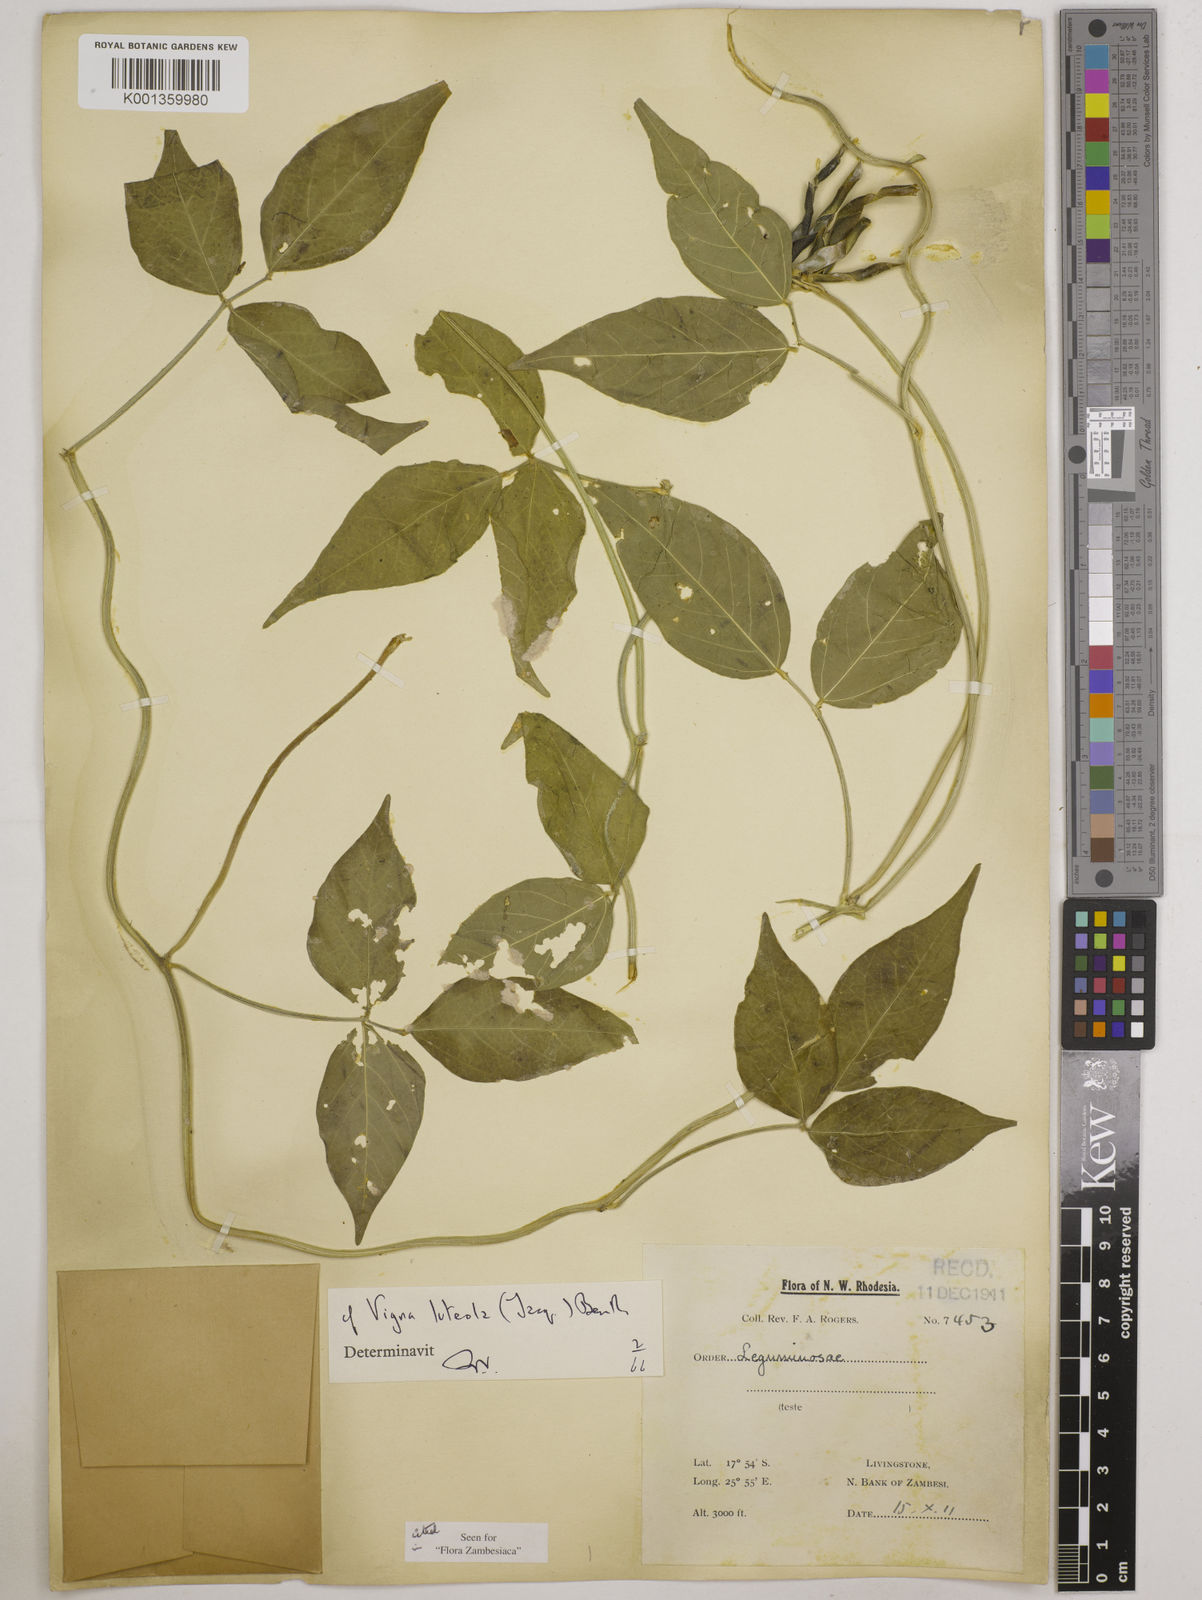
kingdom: Plantae
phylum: Tracheophyta
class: Magnoliopsida
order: Fabales
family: Fabaceae
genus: Vigna
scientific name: Vigna luteola
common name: Hairypod cowpea
